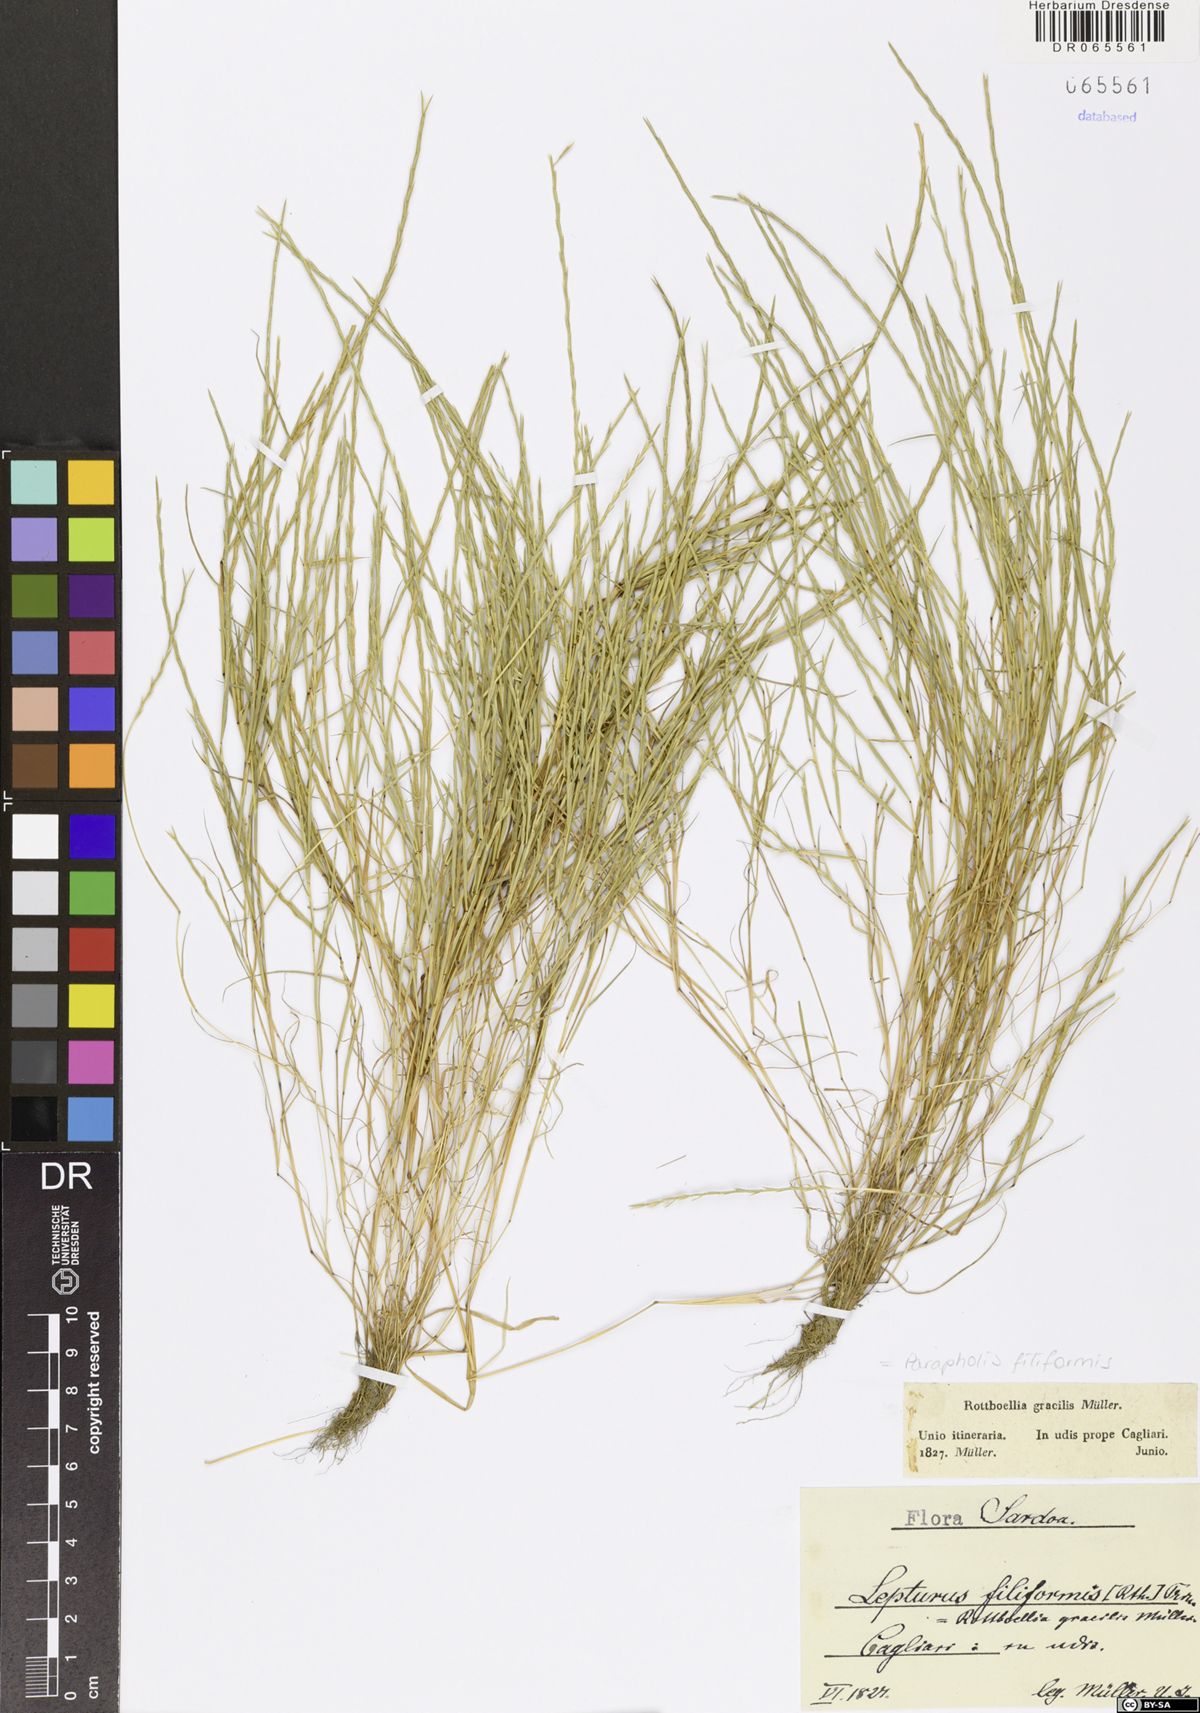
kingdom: Plantae
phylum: Tracheophyta
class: Liliopsida
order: Poales
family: Poaceae
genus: Parapholis
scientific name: Parapholis filiformis
